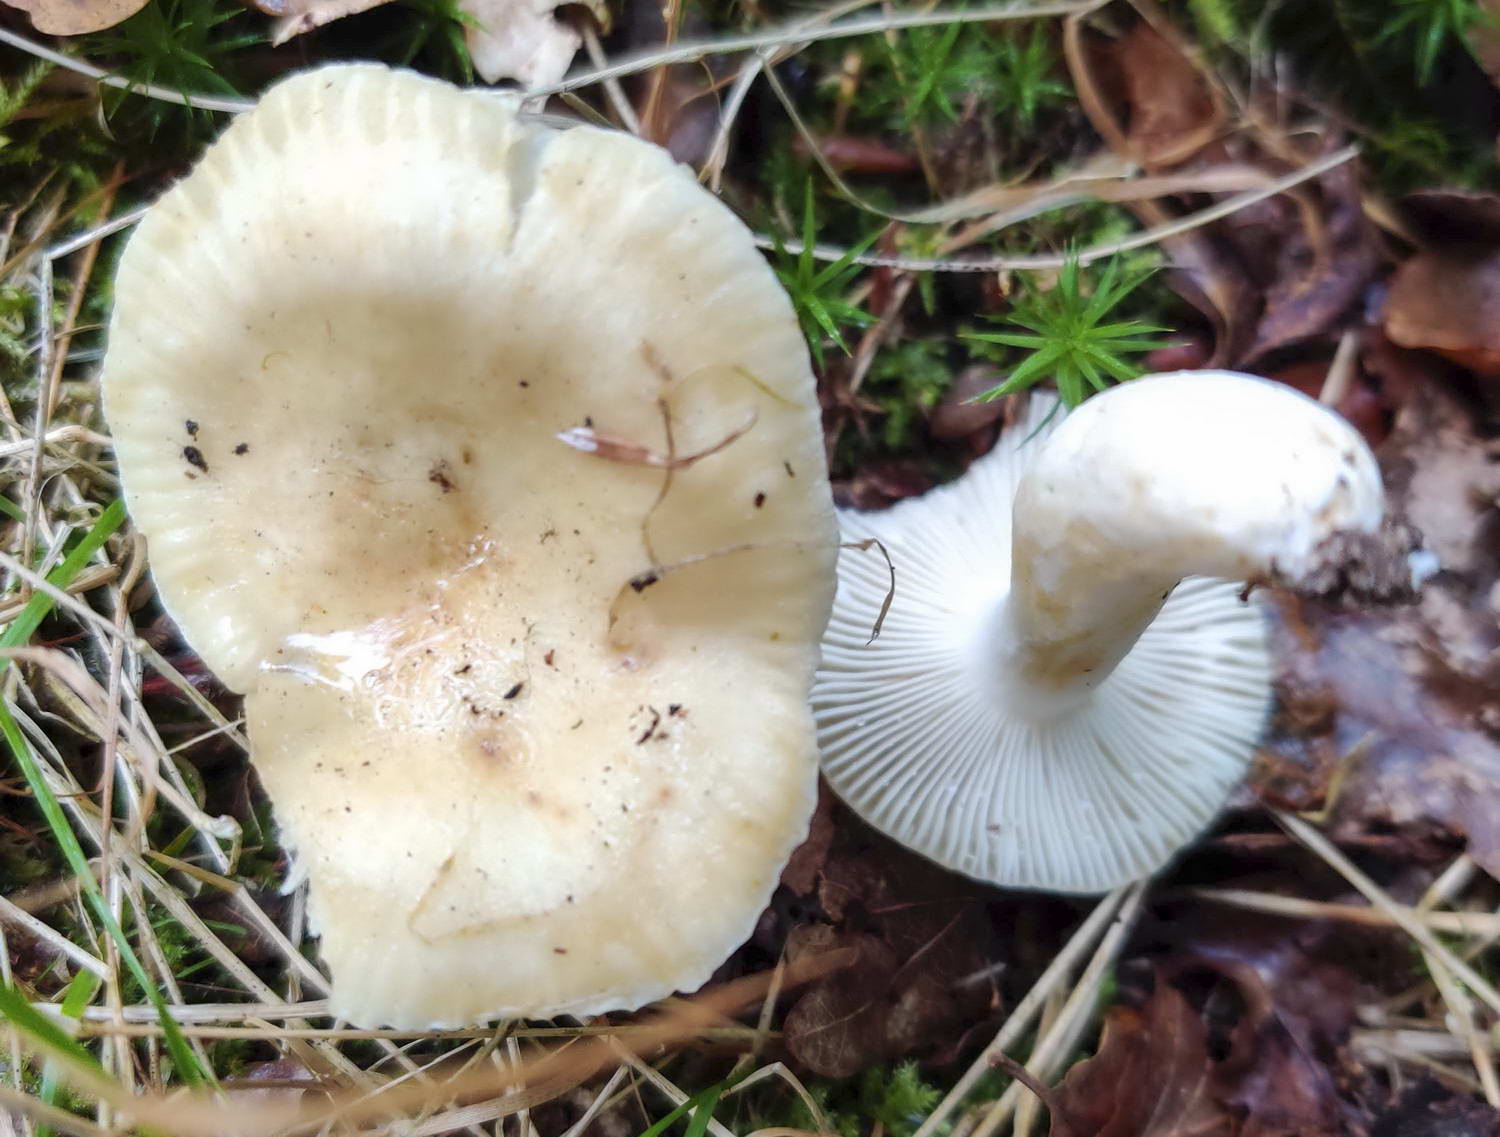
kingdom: Fungi
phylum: Basidiomycota
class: Agaricomycetes
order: Russulales
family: Russulaceae
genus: Russula
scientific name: Russula farinipes
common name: gul kam-skørhat
